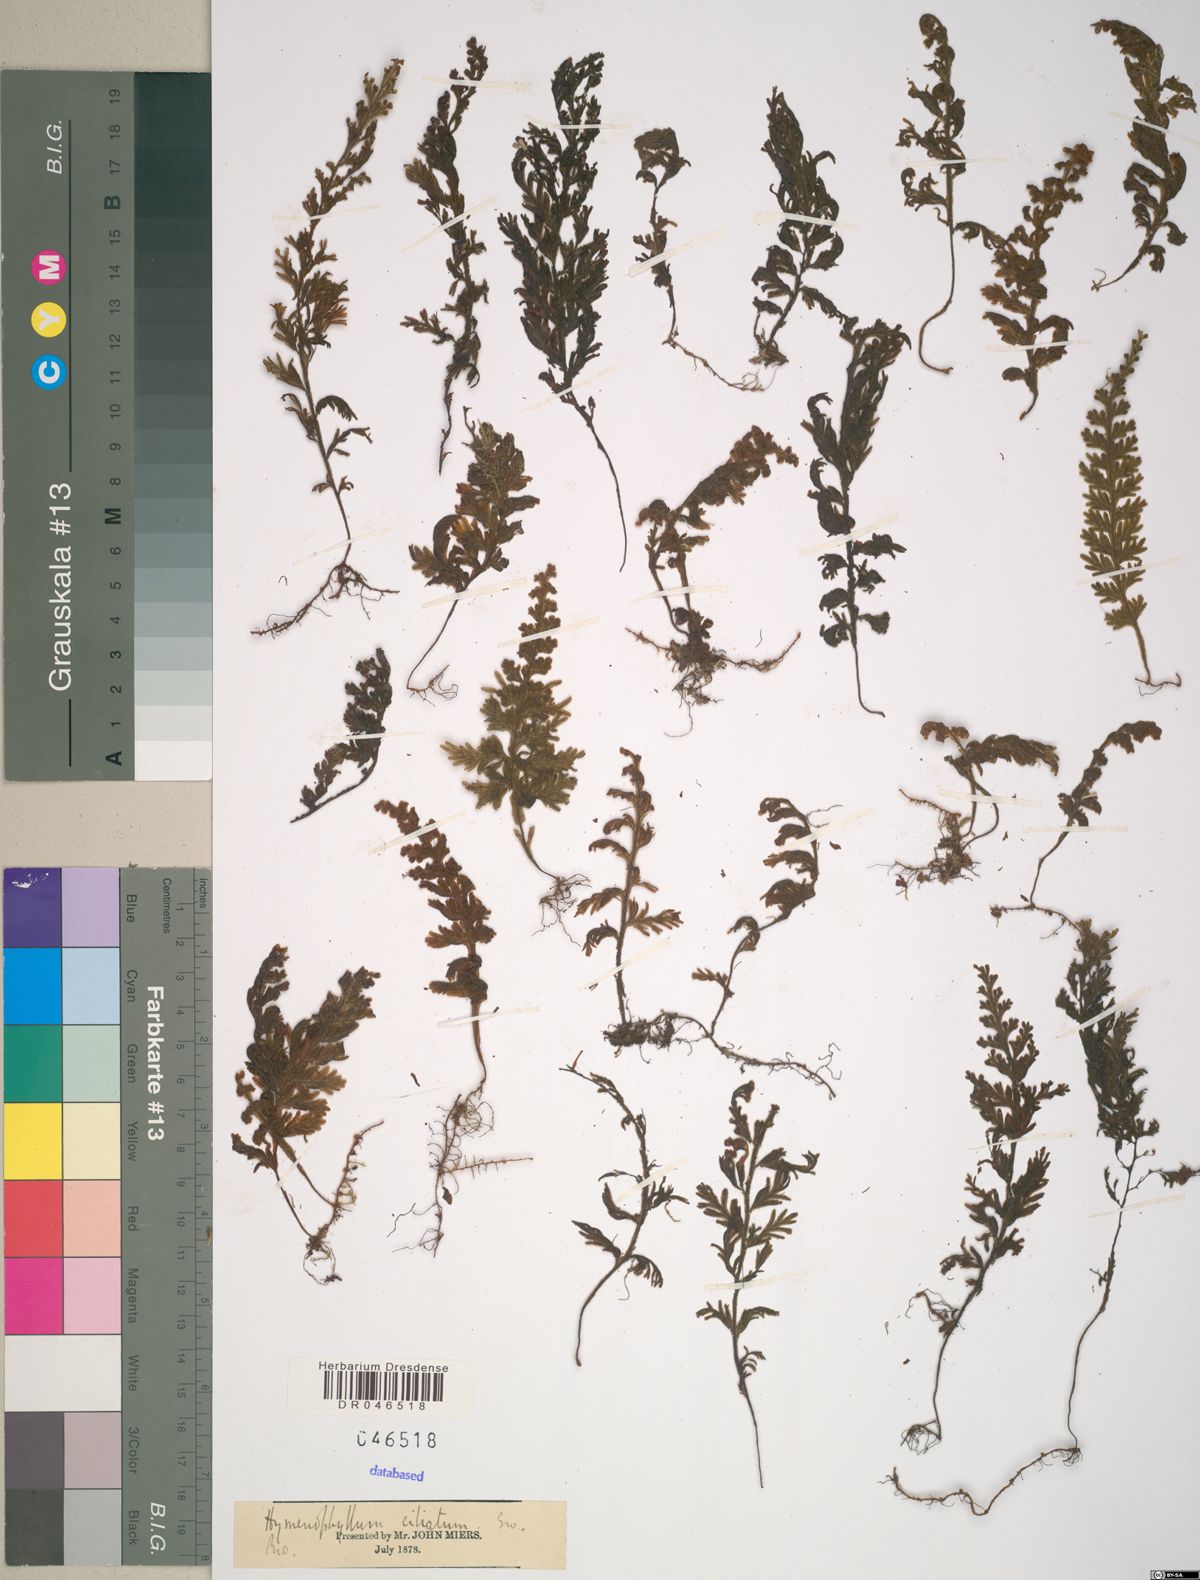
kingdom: Plantae
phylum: Tracheophyta
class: Polypodiopsida
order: Hymenophyllales
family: Hymenophyllaceae
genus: Hymenophyllum
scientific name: Hymenophyllum hirsutum
